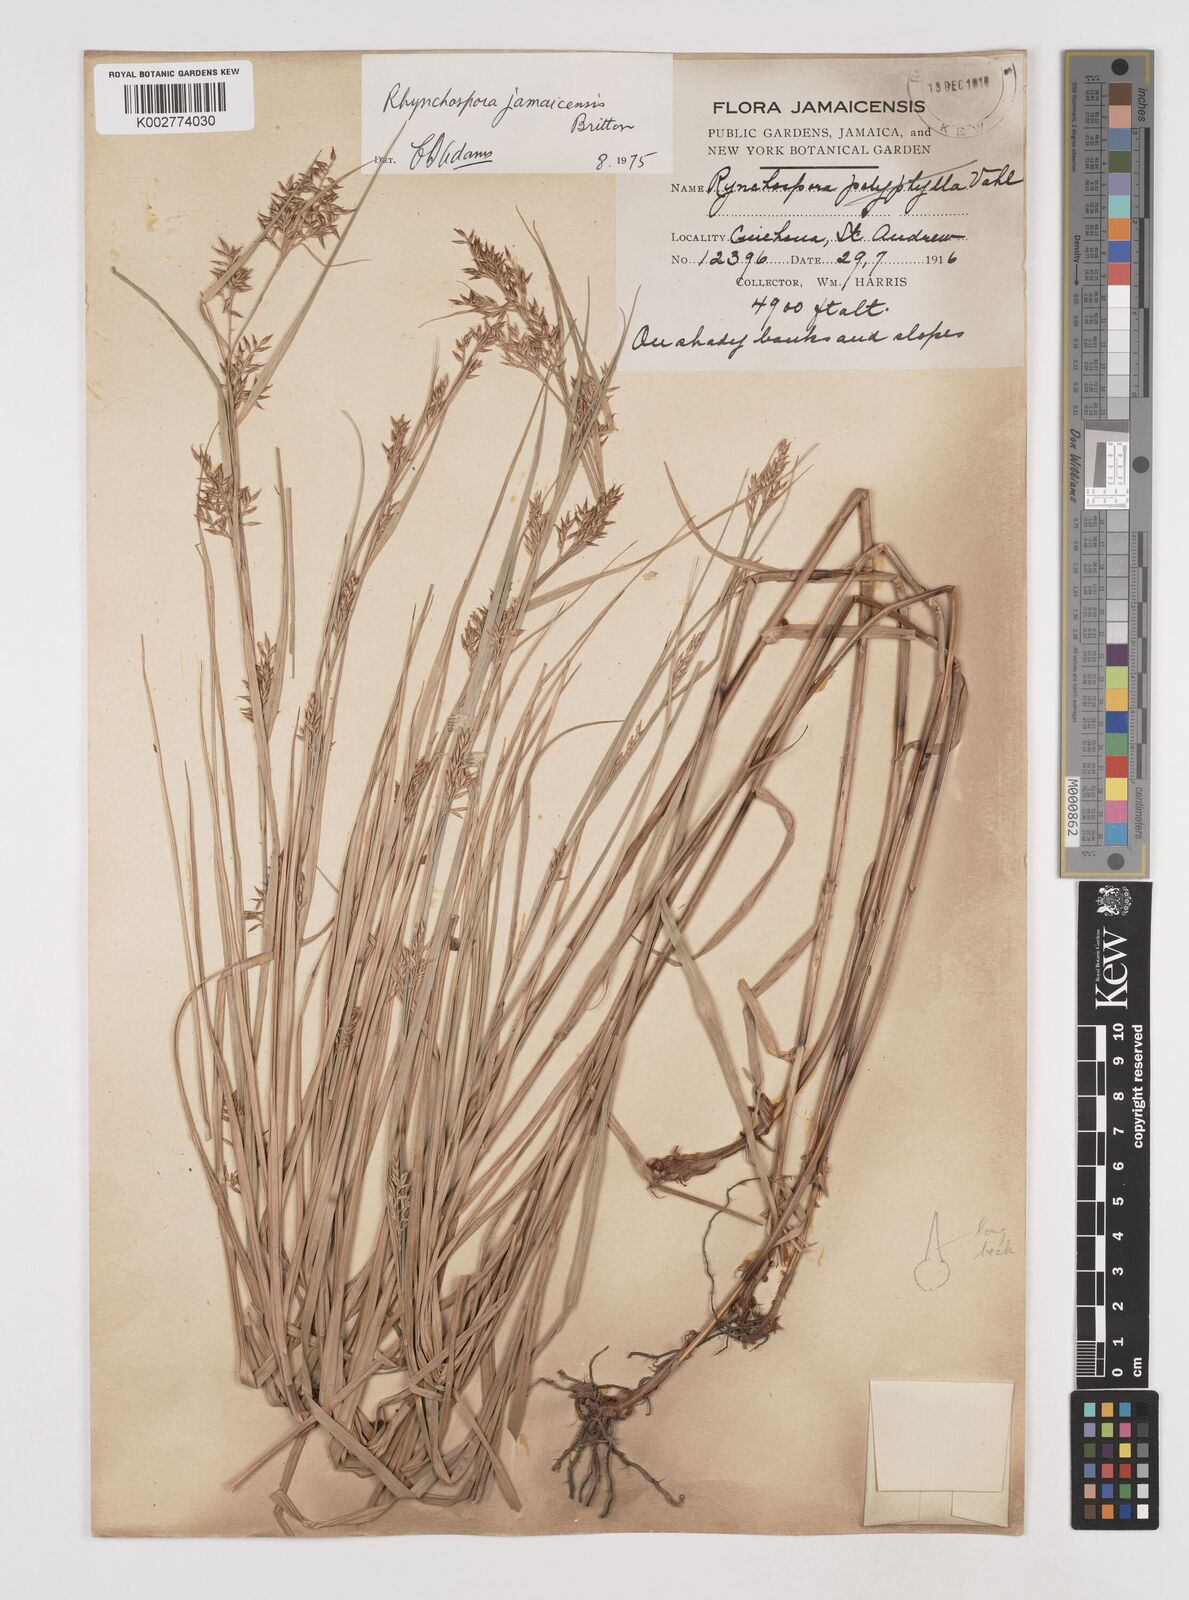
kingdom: Plantae
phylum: Tracheophyta
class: Liliopsida
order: Poales
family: Cyperaceae
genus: Rhynchospora
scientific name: Rhynchospora jamaicensis
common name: Jamaican beaksedge
